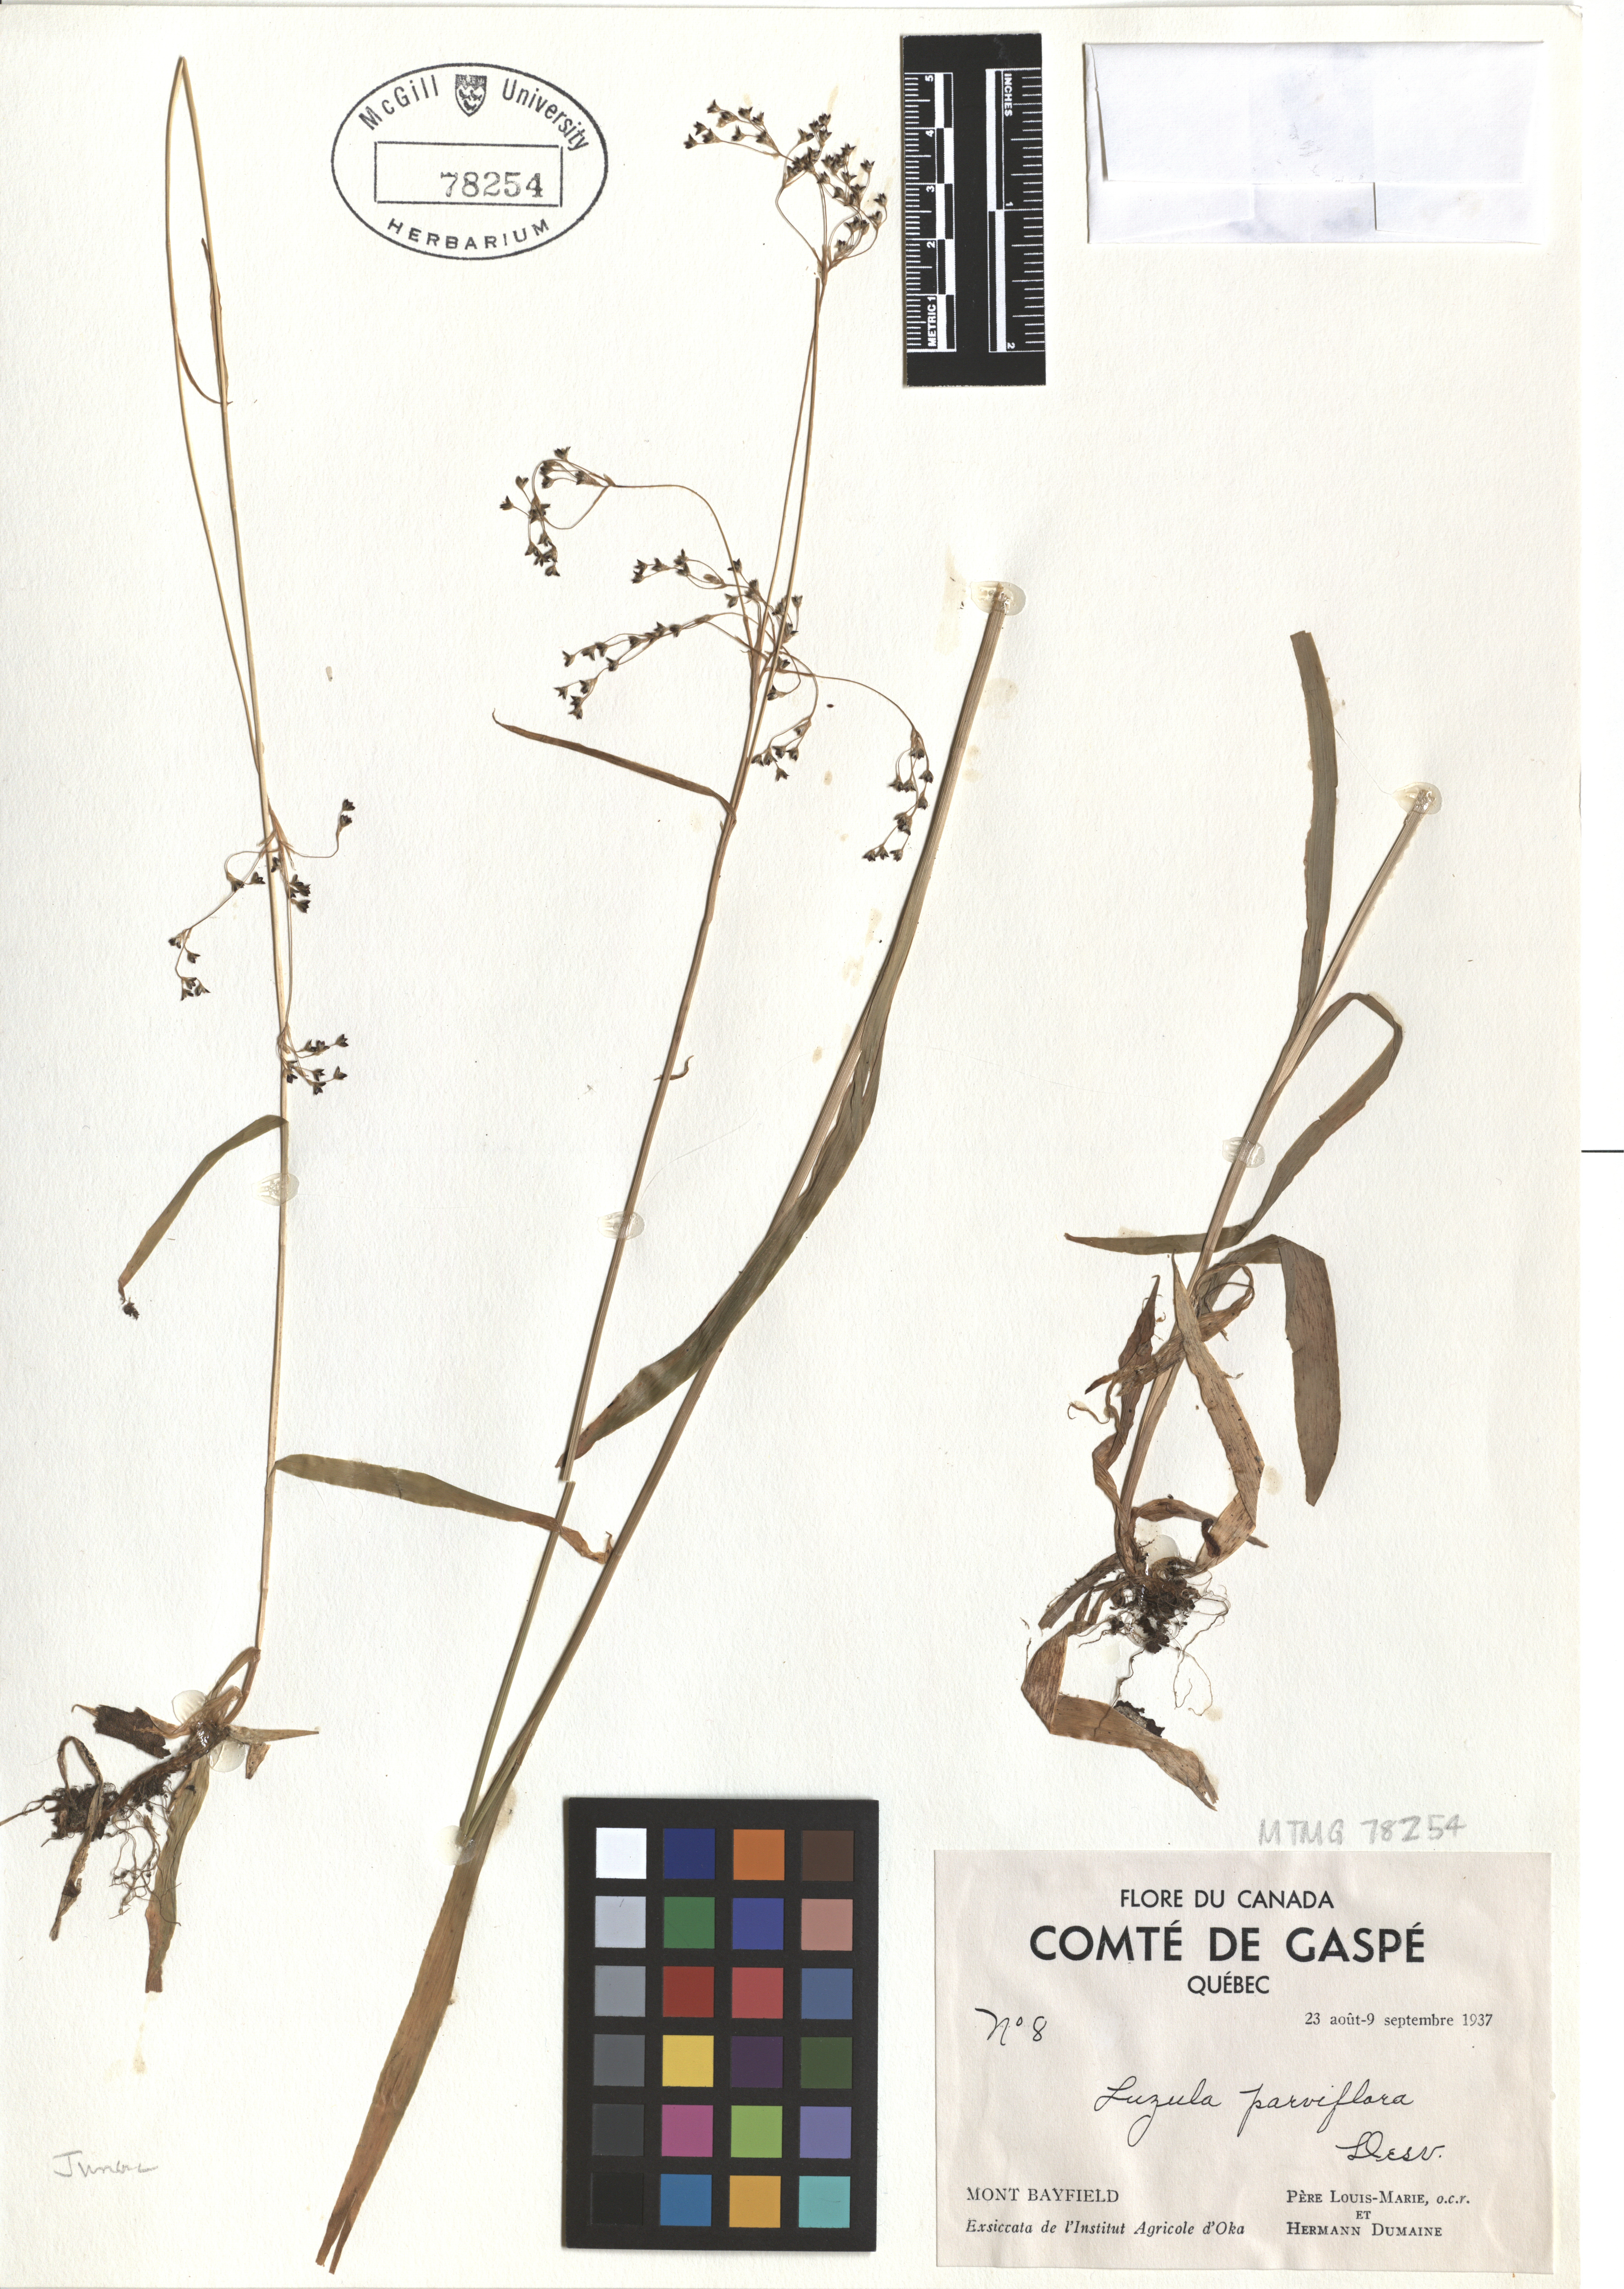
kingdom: Plantae
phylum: Tracheophyta
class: Liliopsida
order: Poales
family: Juncaceae
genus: Luzula
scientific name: Luzula parviflora
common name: Millet woodrush
